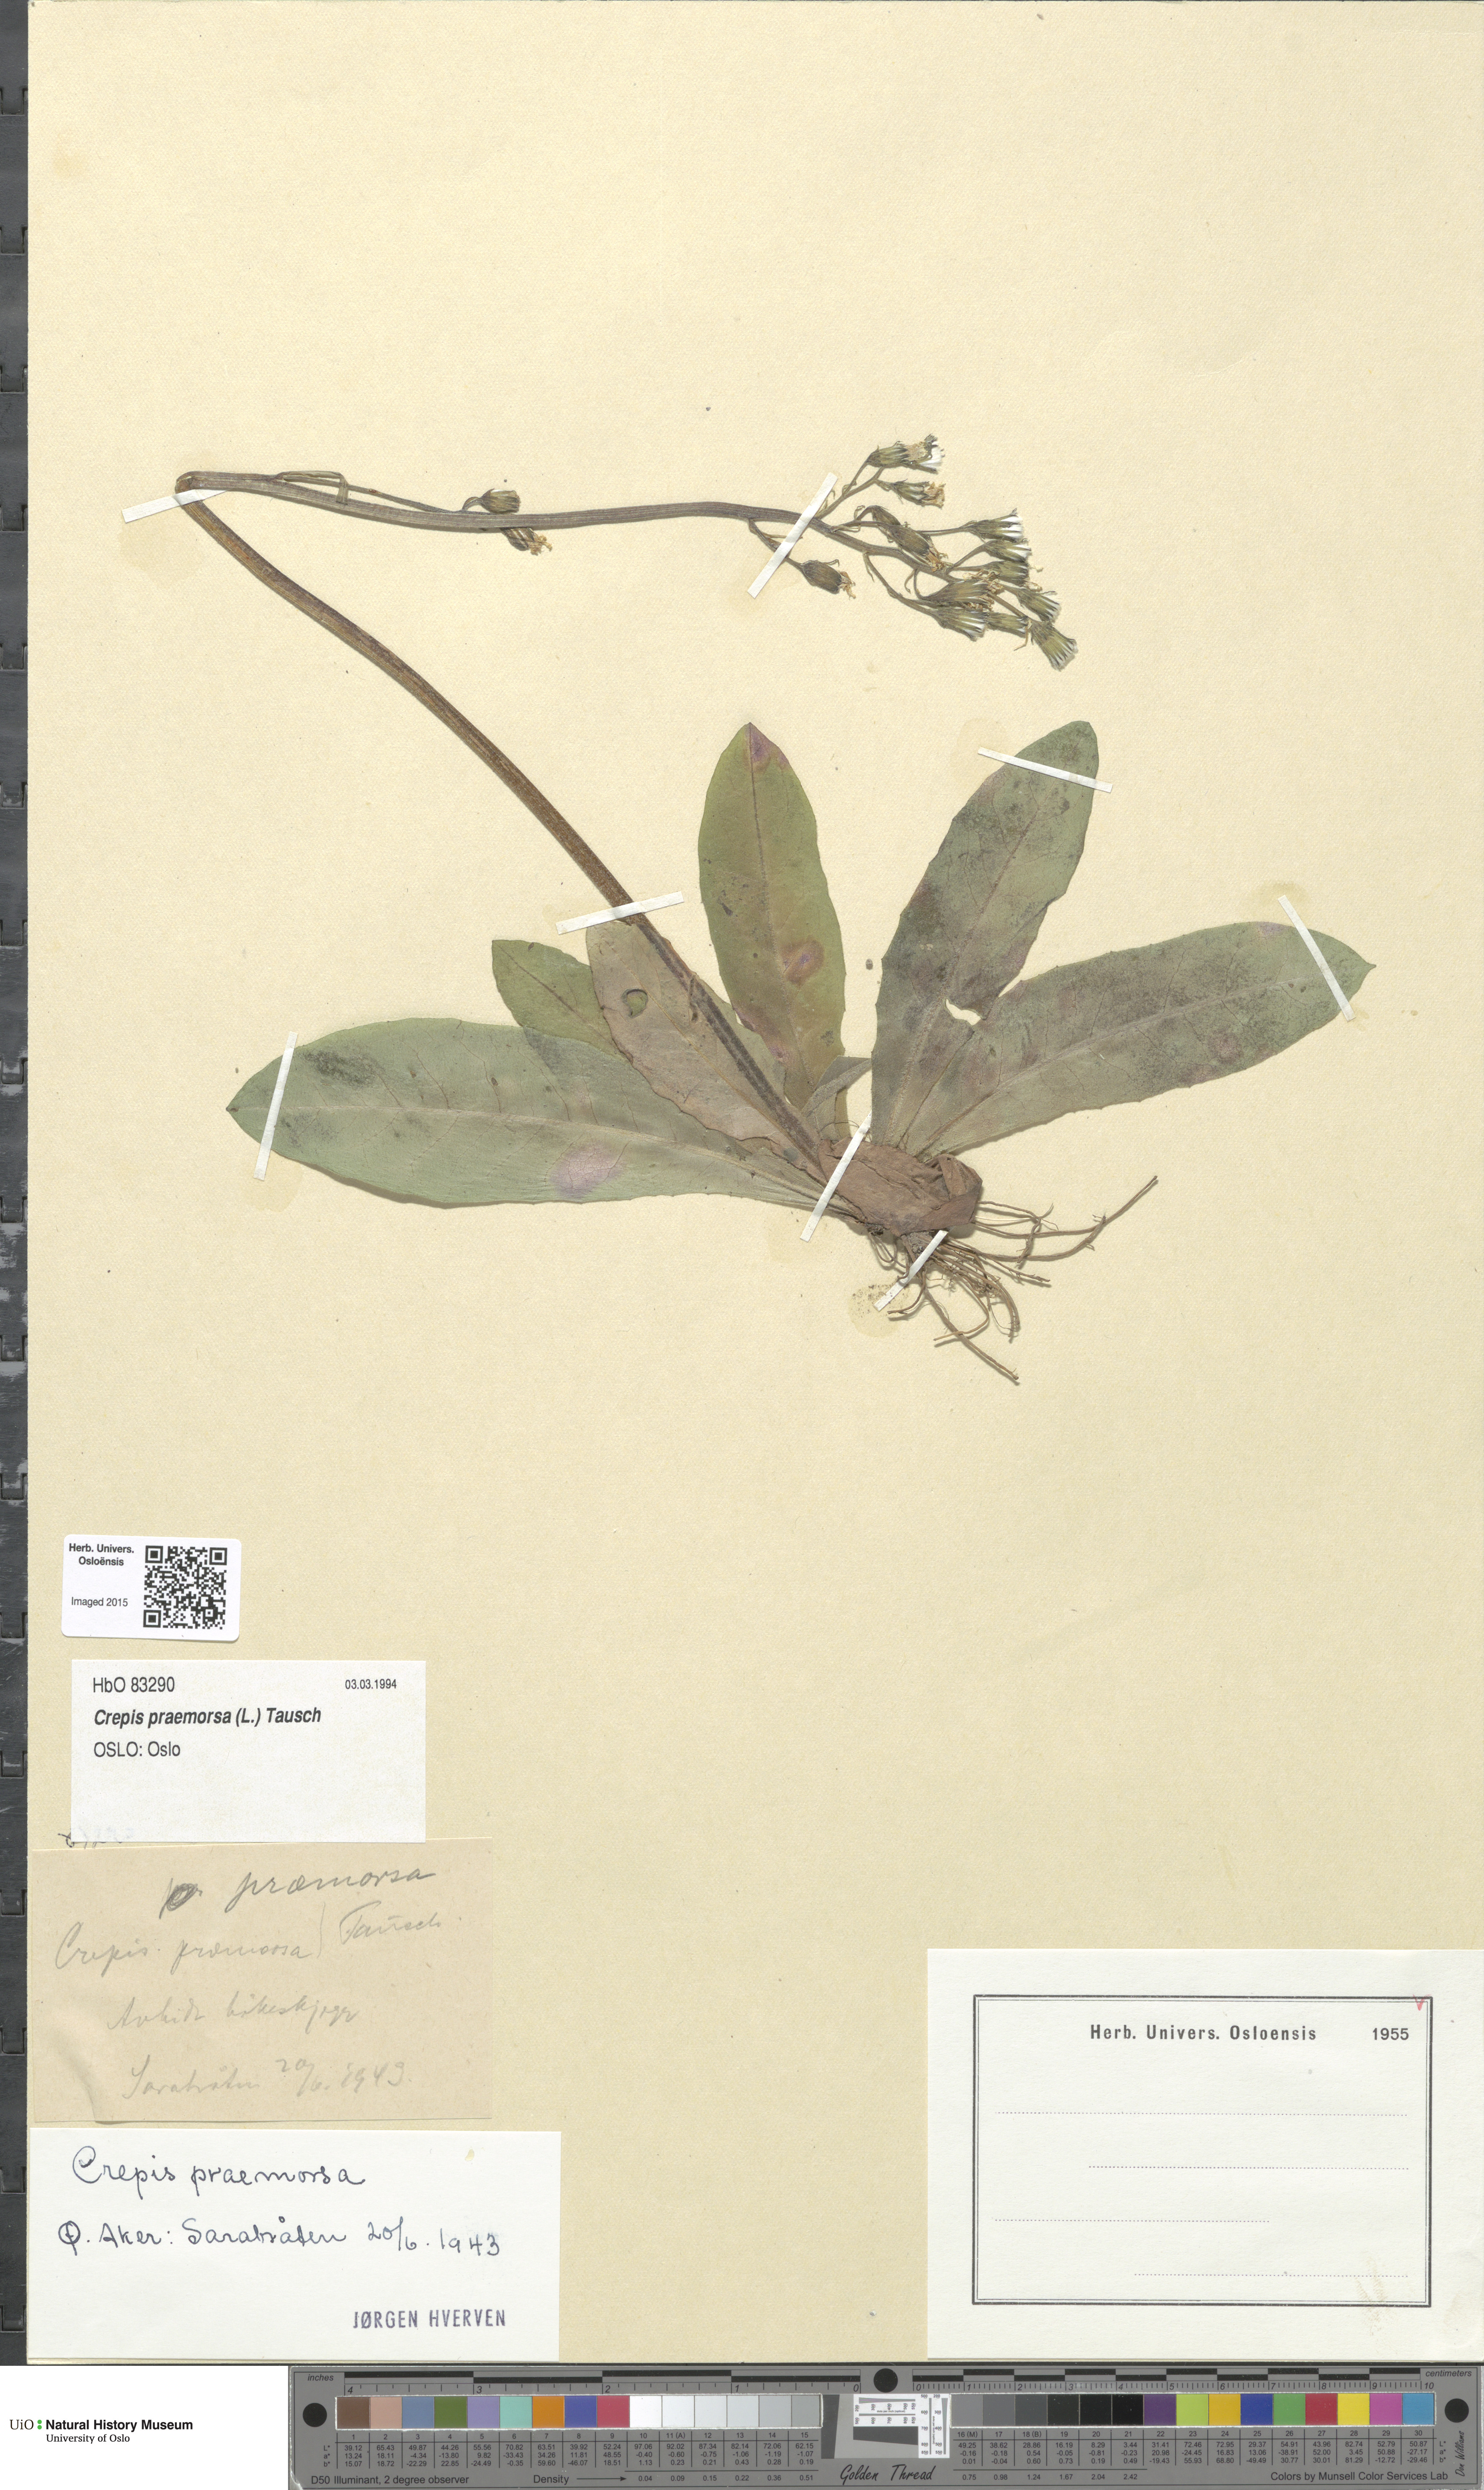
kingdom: Plantae
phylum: Tracheophyta
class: Magnoliopsida
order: Asterales
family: Asteraceae
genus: Crepis
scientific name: Crepis praemorsa
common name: Leafless hawk's-beard
